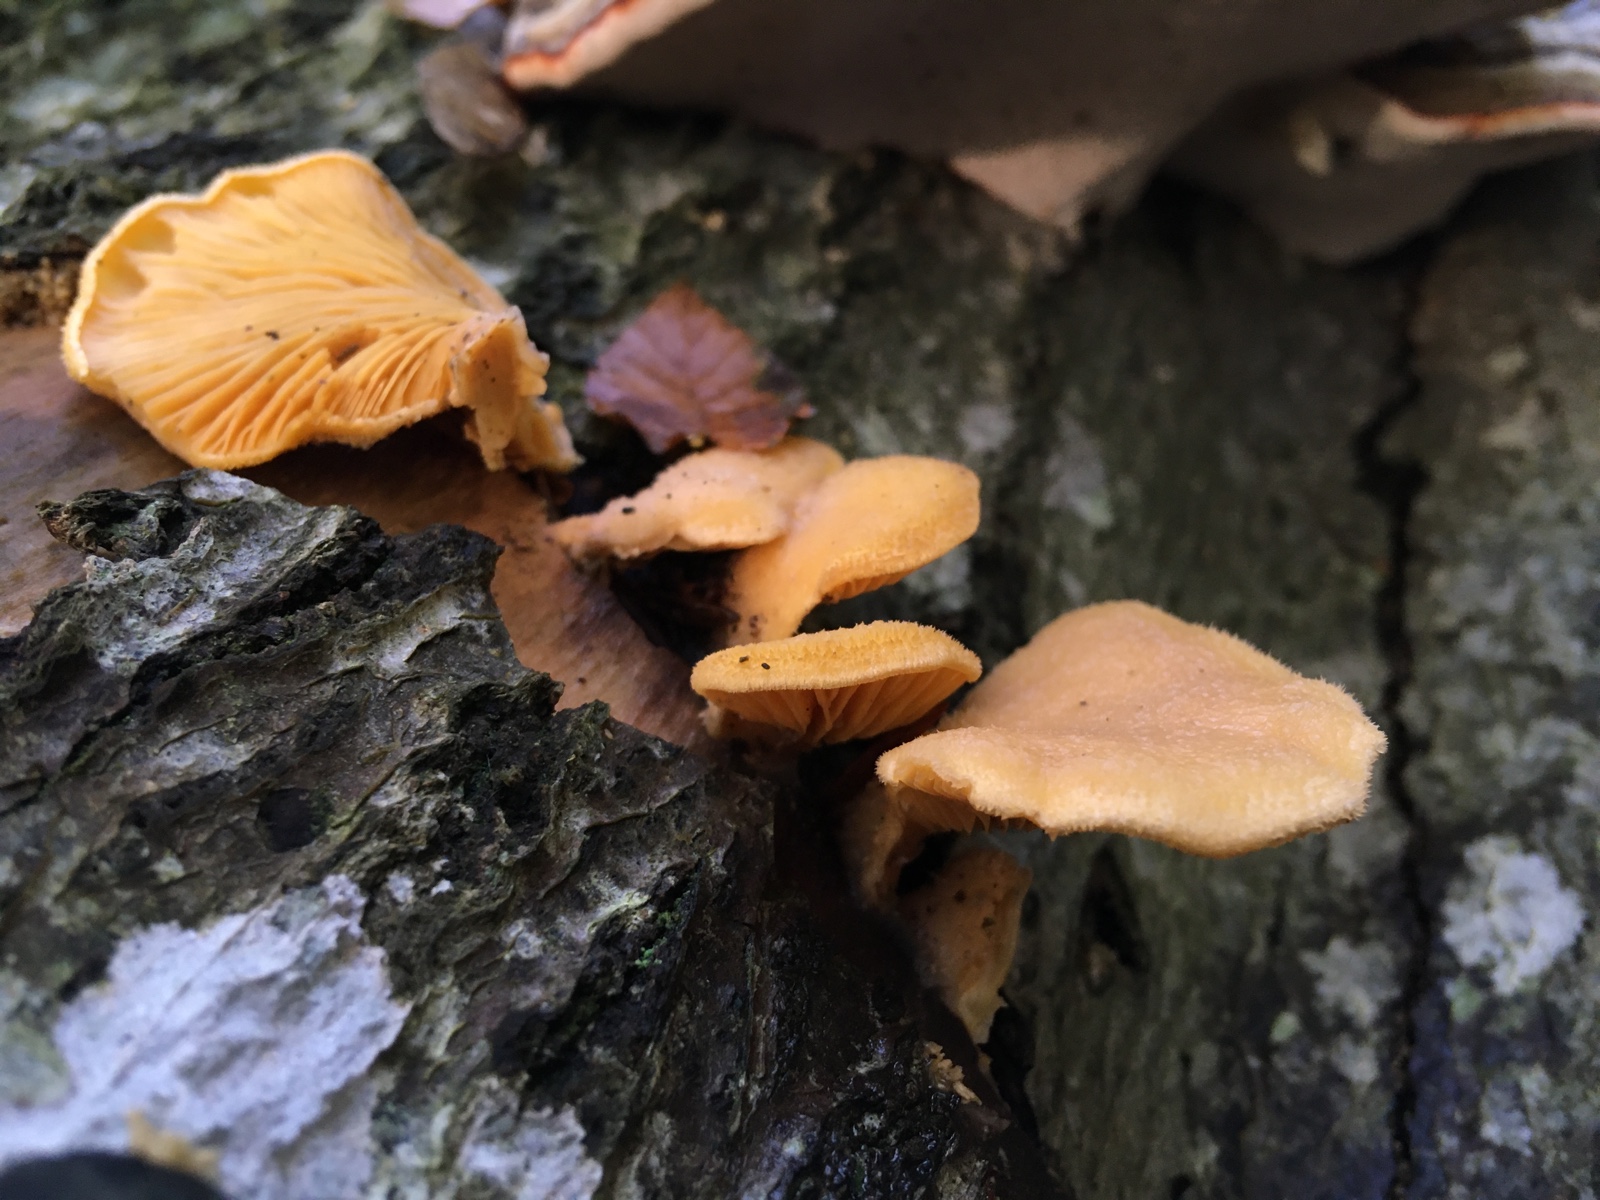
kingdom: Fungi
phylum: Basidiomycota
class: Agaricomycetes
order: Agaricales
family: Phyllotopsidaceae
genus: Phyllotopsis
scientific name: Phyllotopsis nidulans
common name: okkerblad
